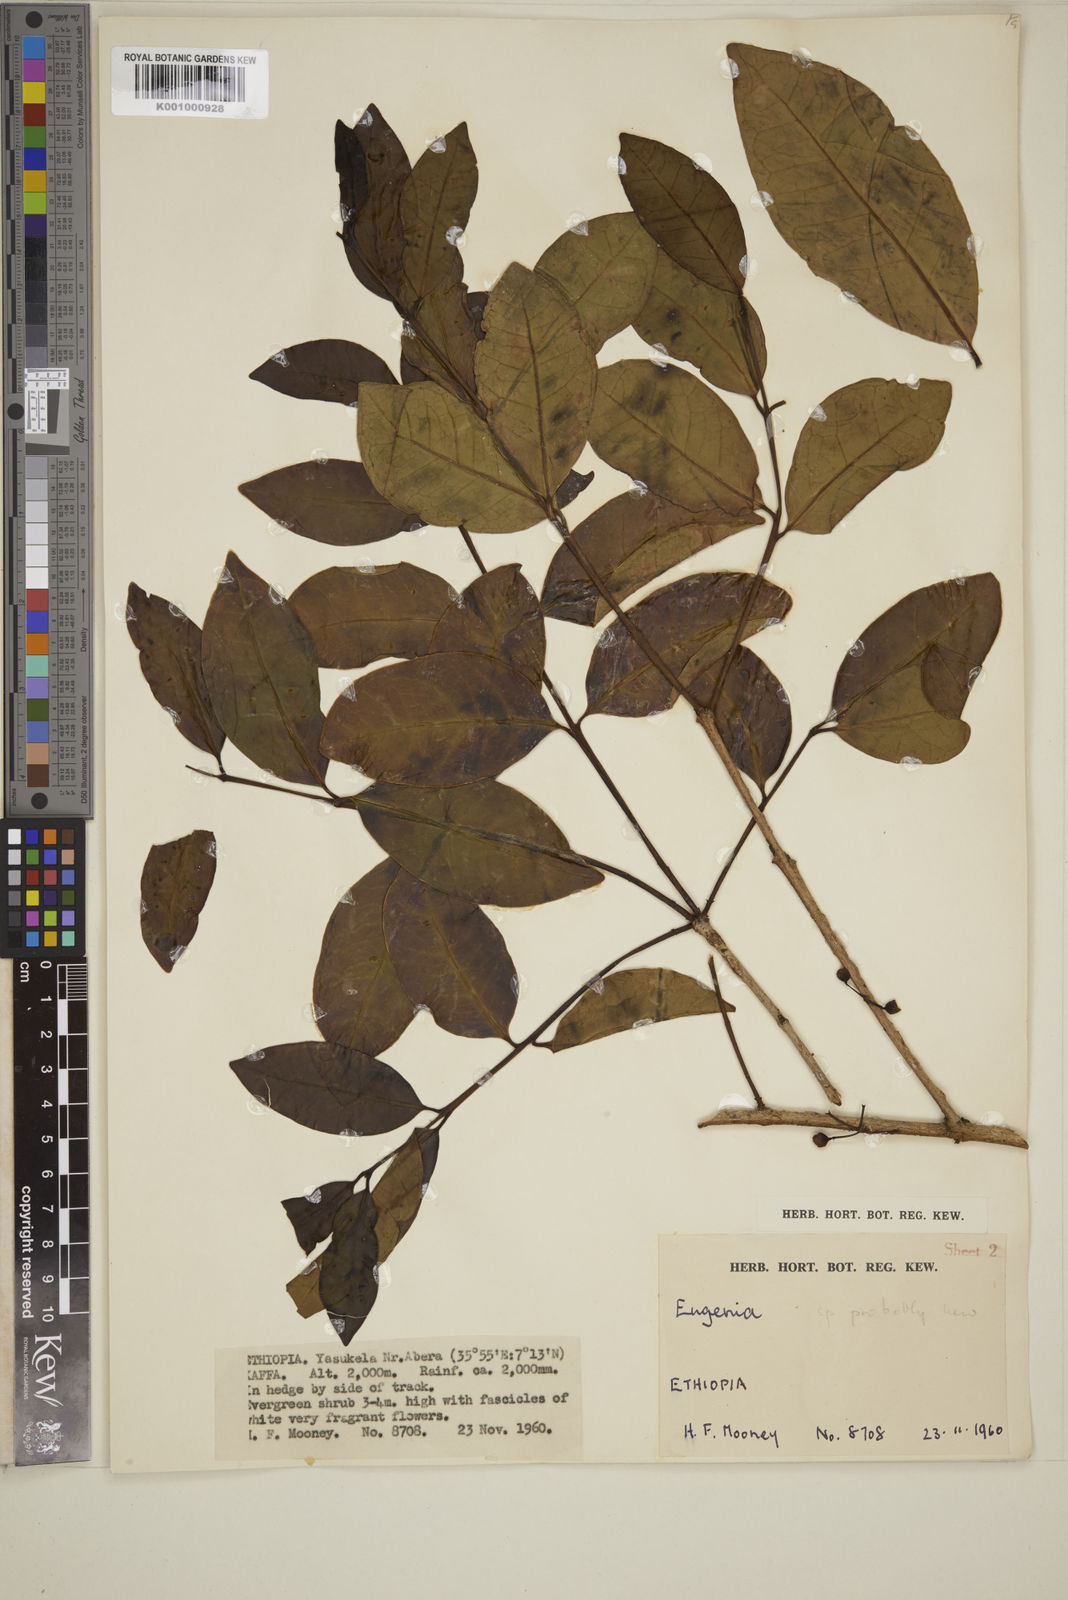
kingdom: Plantae
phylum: Tracheophyta
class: Magnoliopsida
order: Myrtales
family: Myrtaceae
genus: Eugenia
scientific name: Eugenia bukobensis
